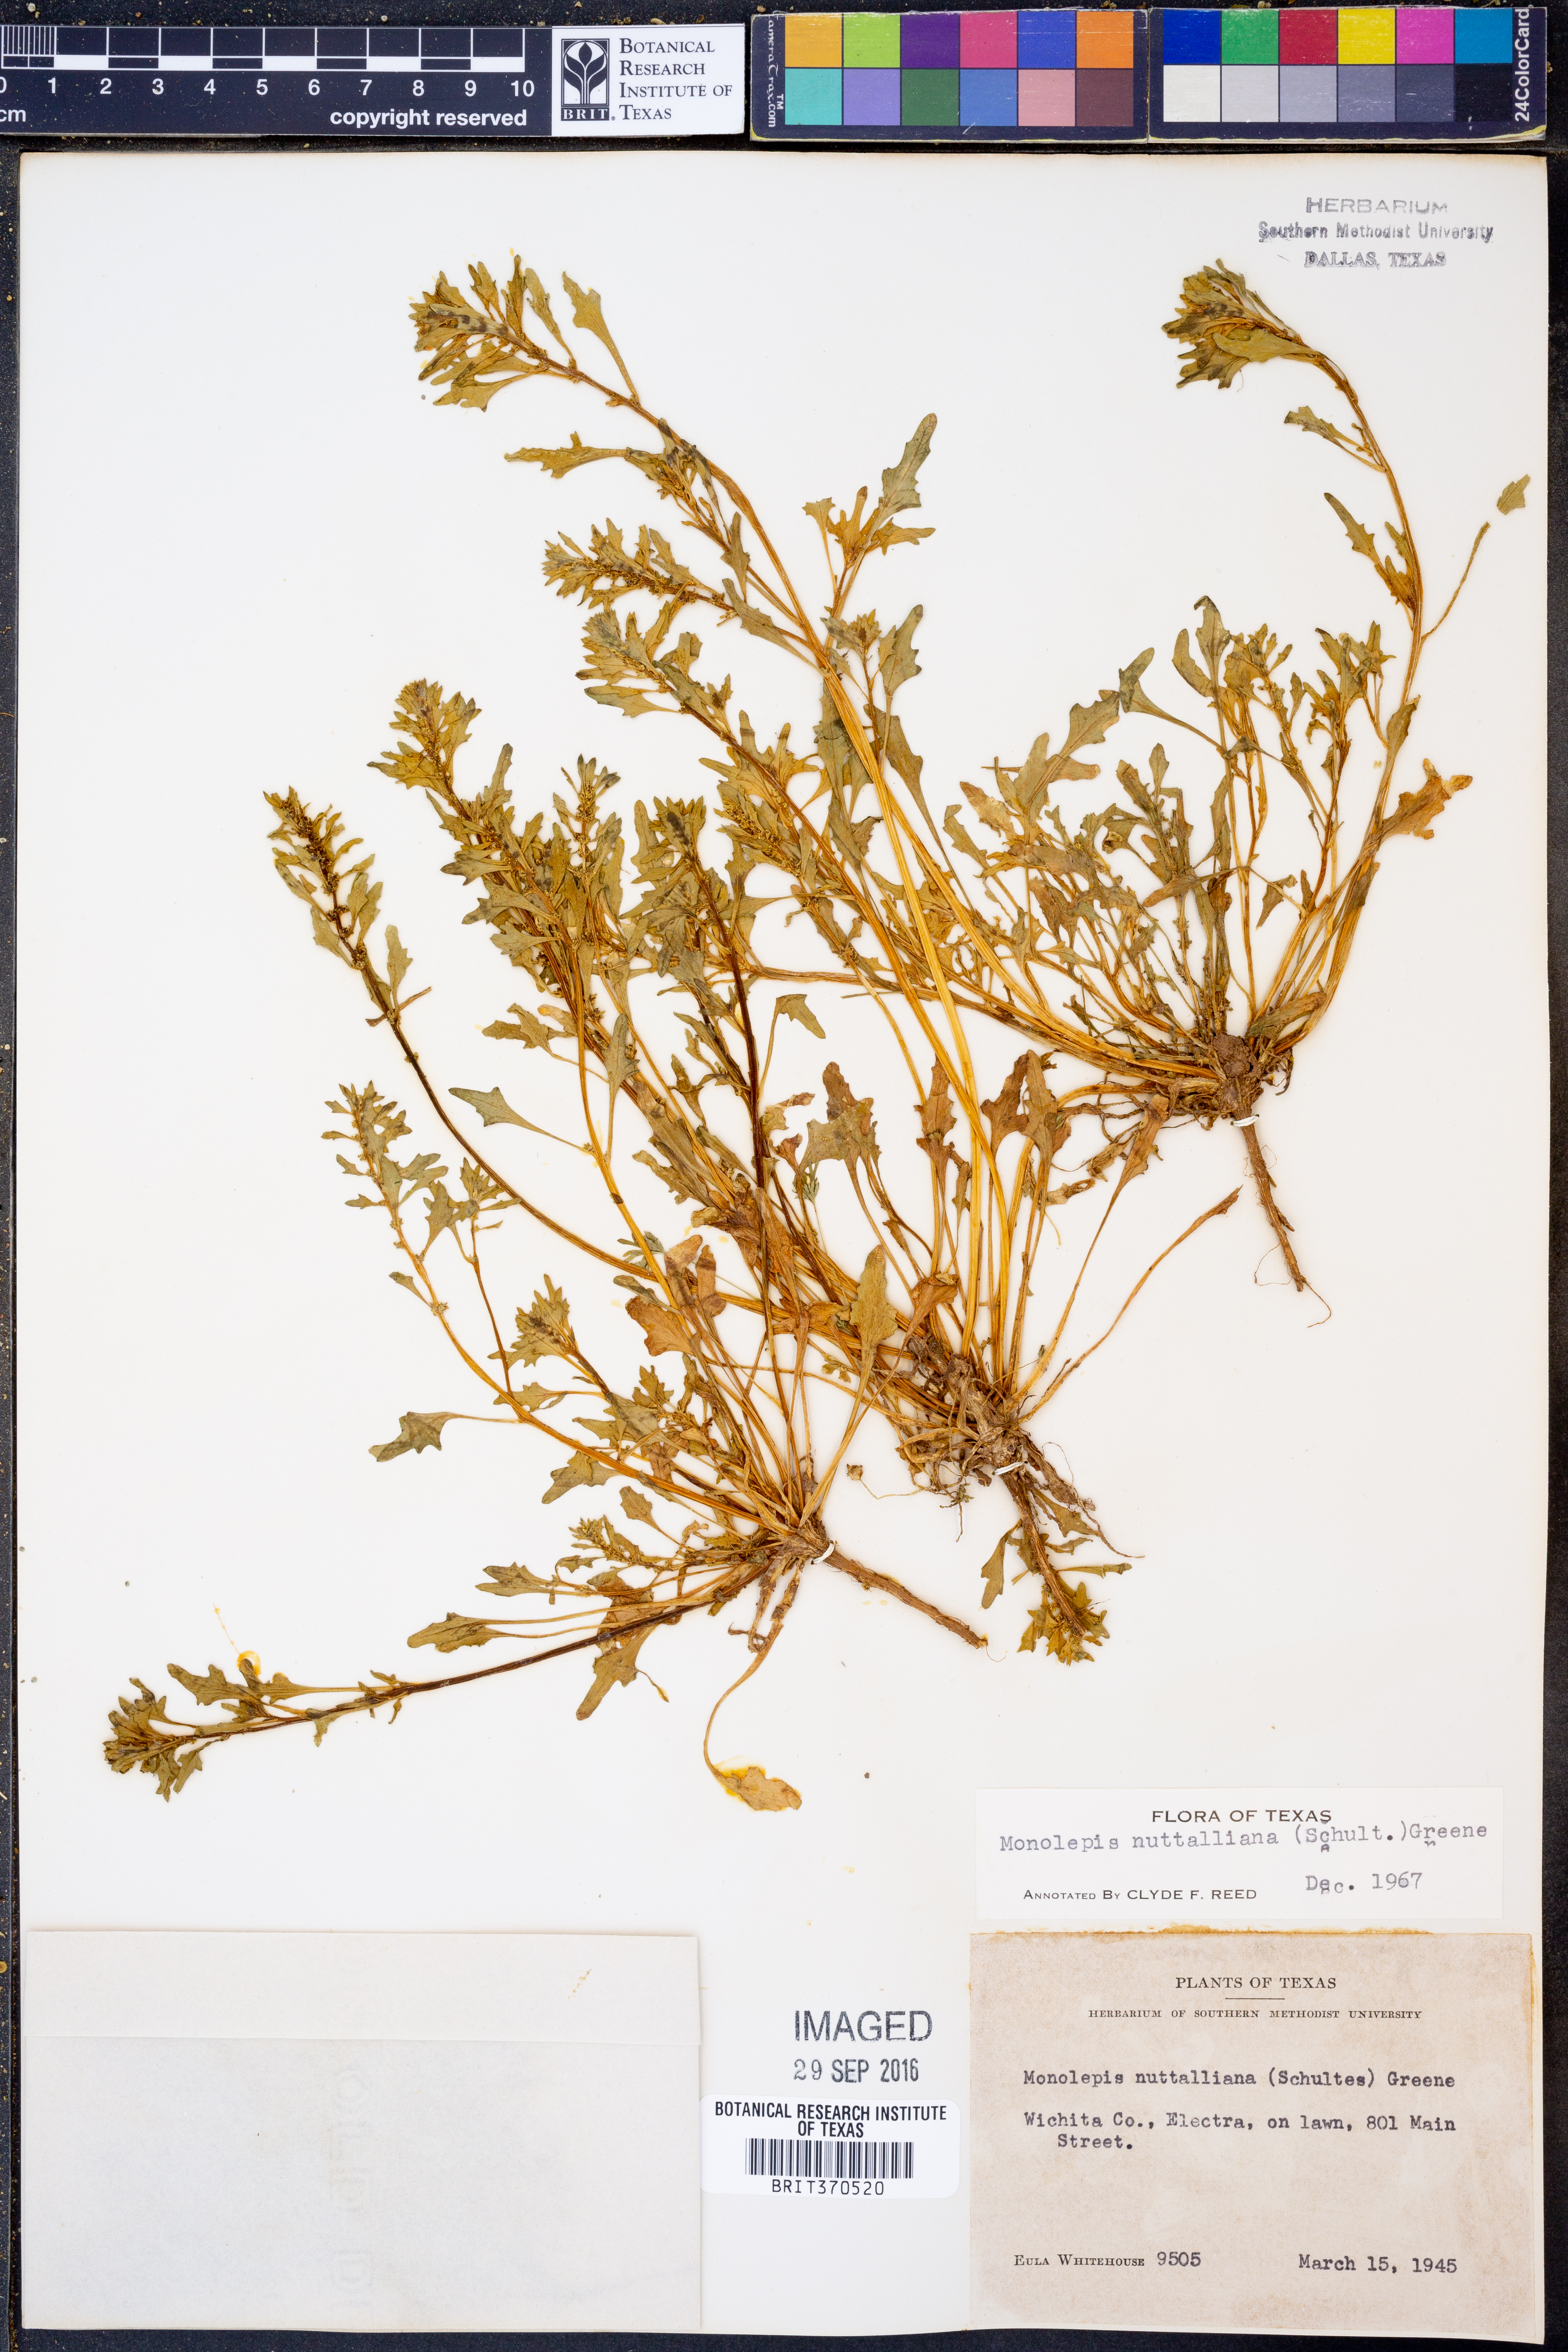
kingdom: Plantae
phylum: Tracheophyta
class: Magnoliopsida
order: Caryophyllales
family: Amaranthaceae
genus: Blitum
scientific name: Blitum nuttallianum
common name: Poverty-weed
